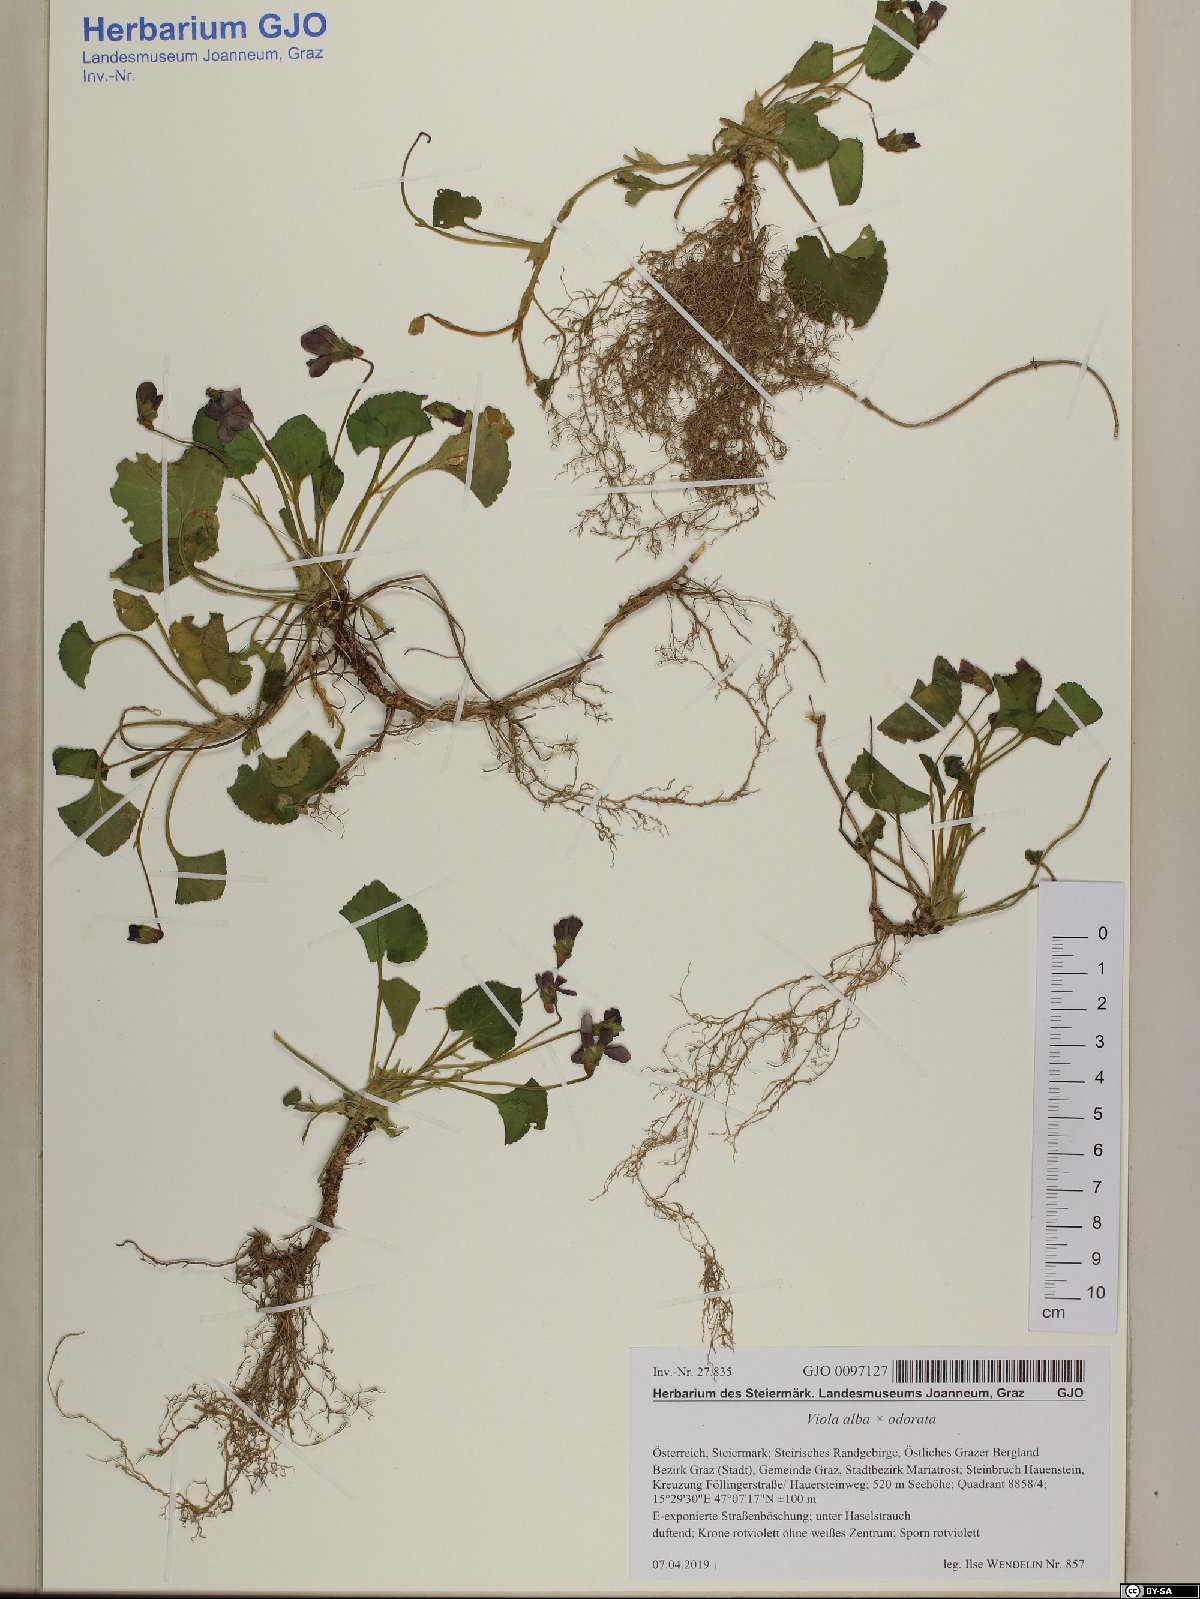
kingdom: Plantae
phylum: Tracheophyta
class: Magnoliopsida
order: Malpighiales
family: Violaceae
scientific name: Violaceae
